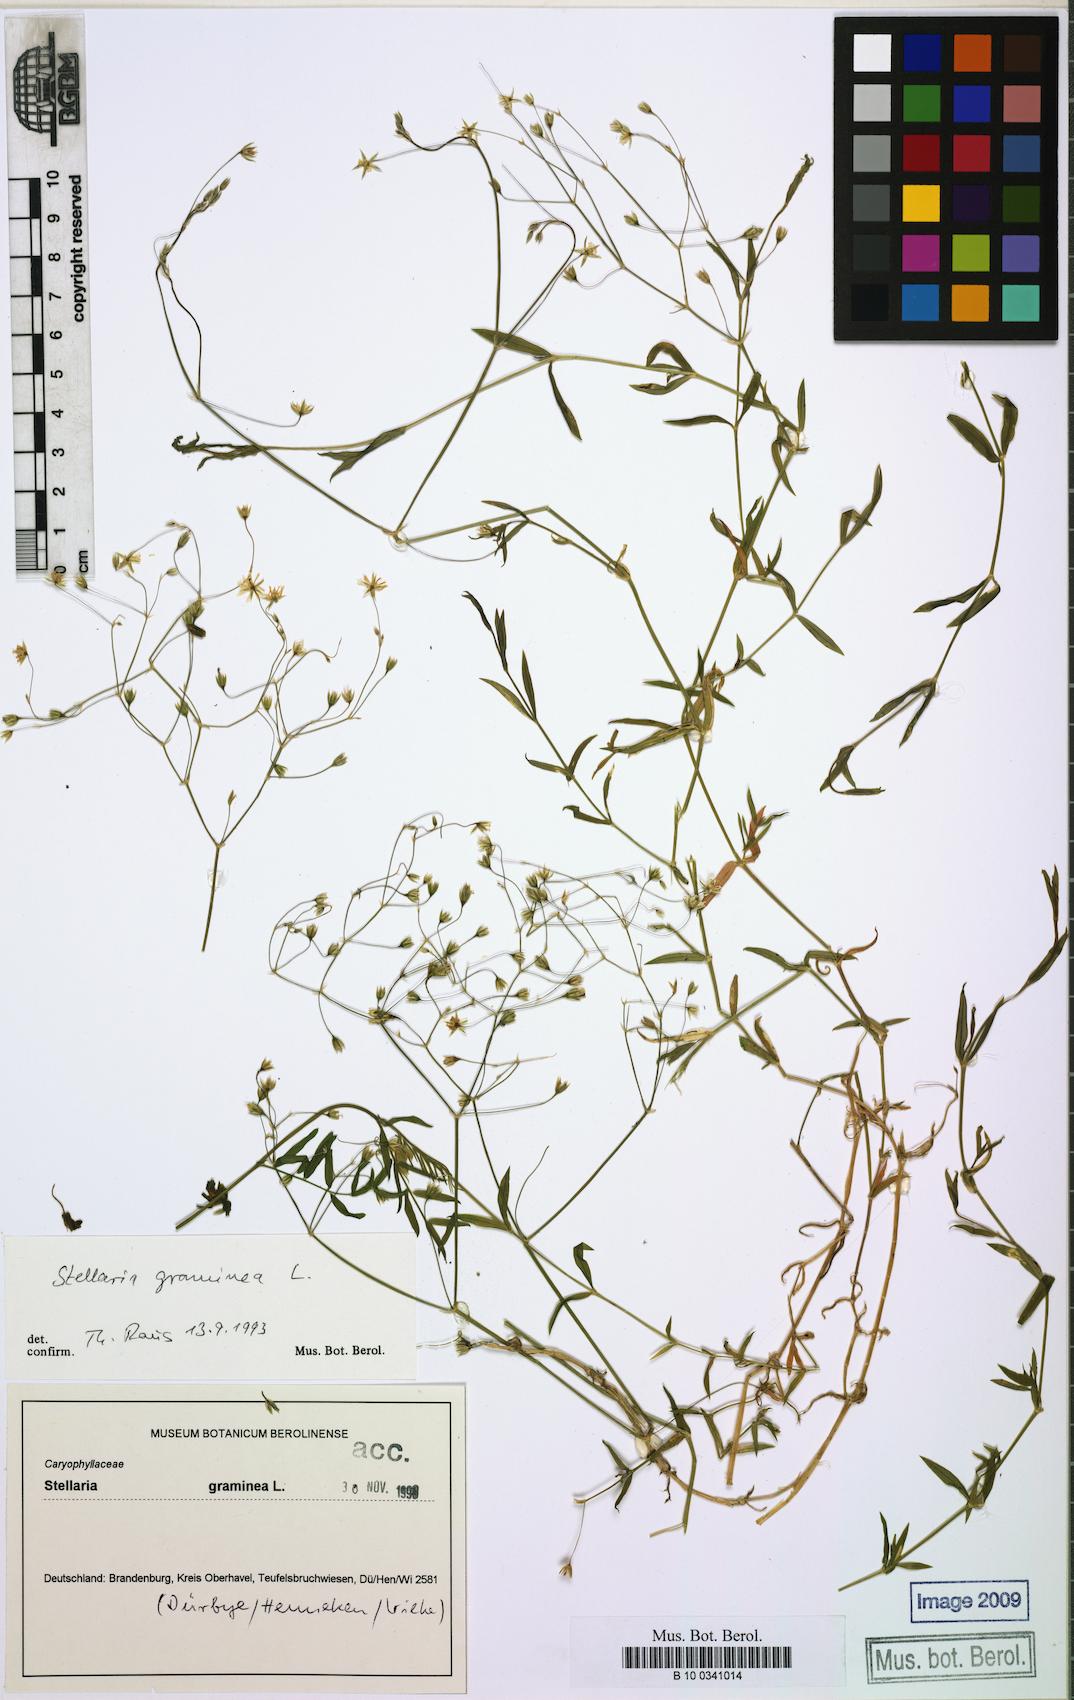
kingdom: Plantae
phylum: Tracheophyta
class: Magnoliopsida
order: Caryophyllales
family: Caryophyllaceae
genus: Stellaria
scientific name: Stellaria graminea
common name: Grass-like starwort
